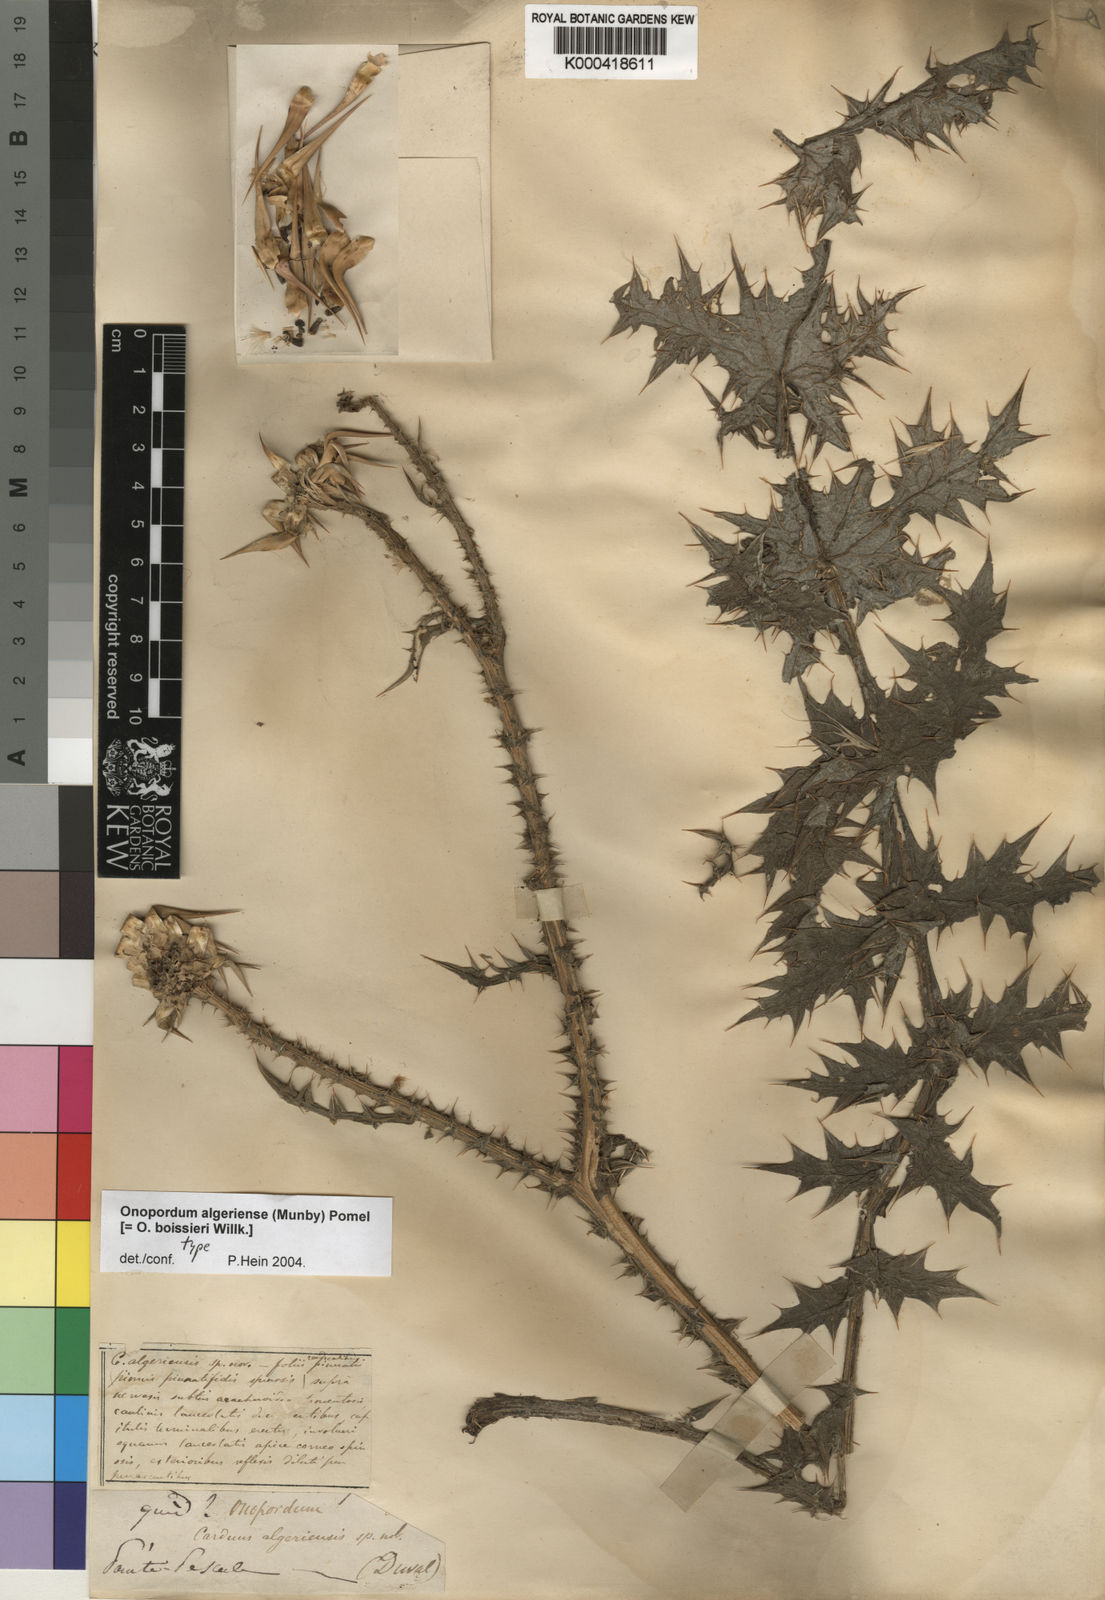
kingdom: Plantae
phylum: Tracheophyta
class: Magnoliopsida
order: Asterales
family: Asteraceae
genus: Onopordum
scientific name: Onopordum
